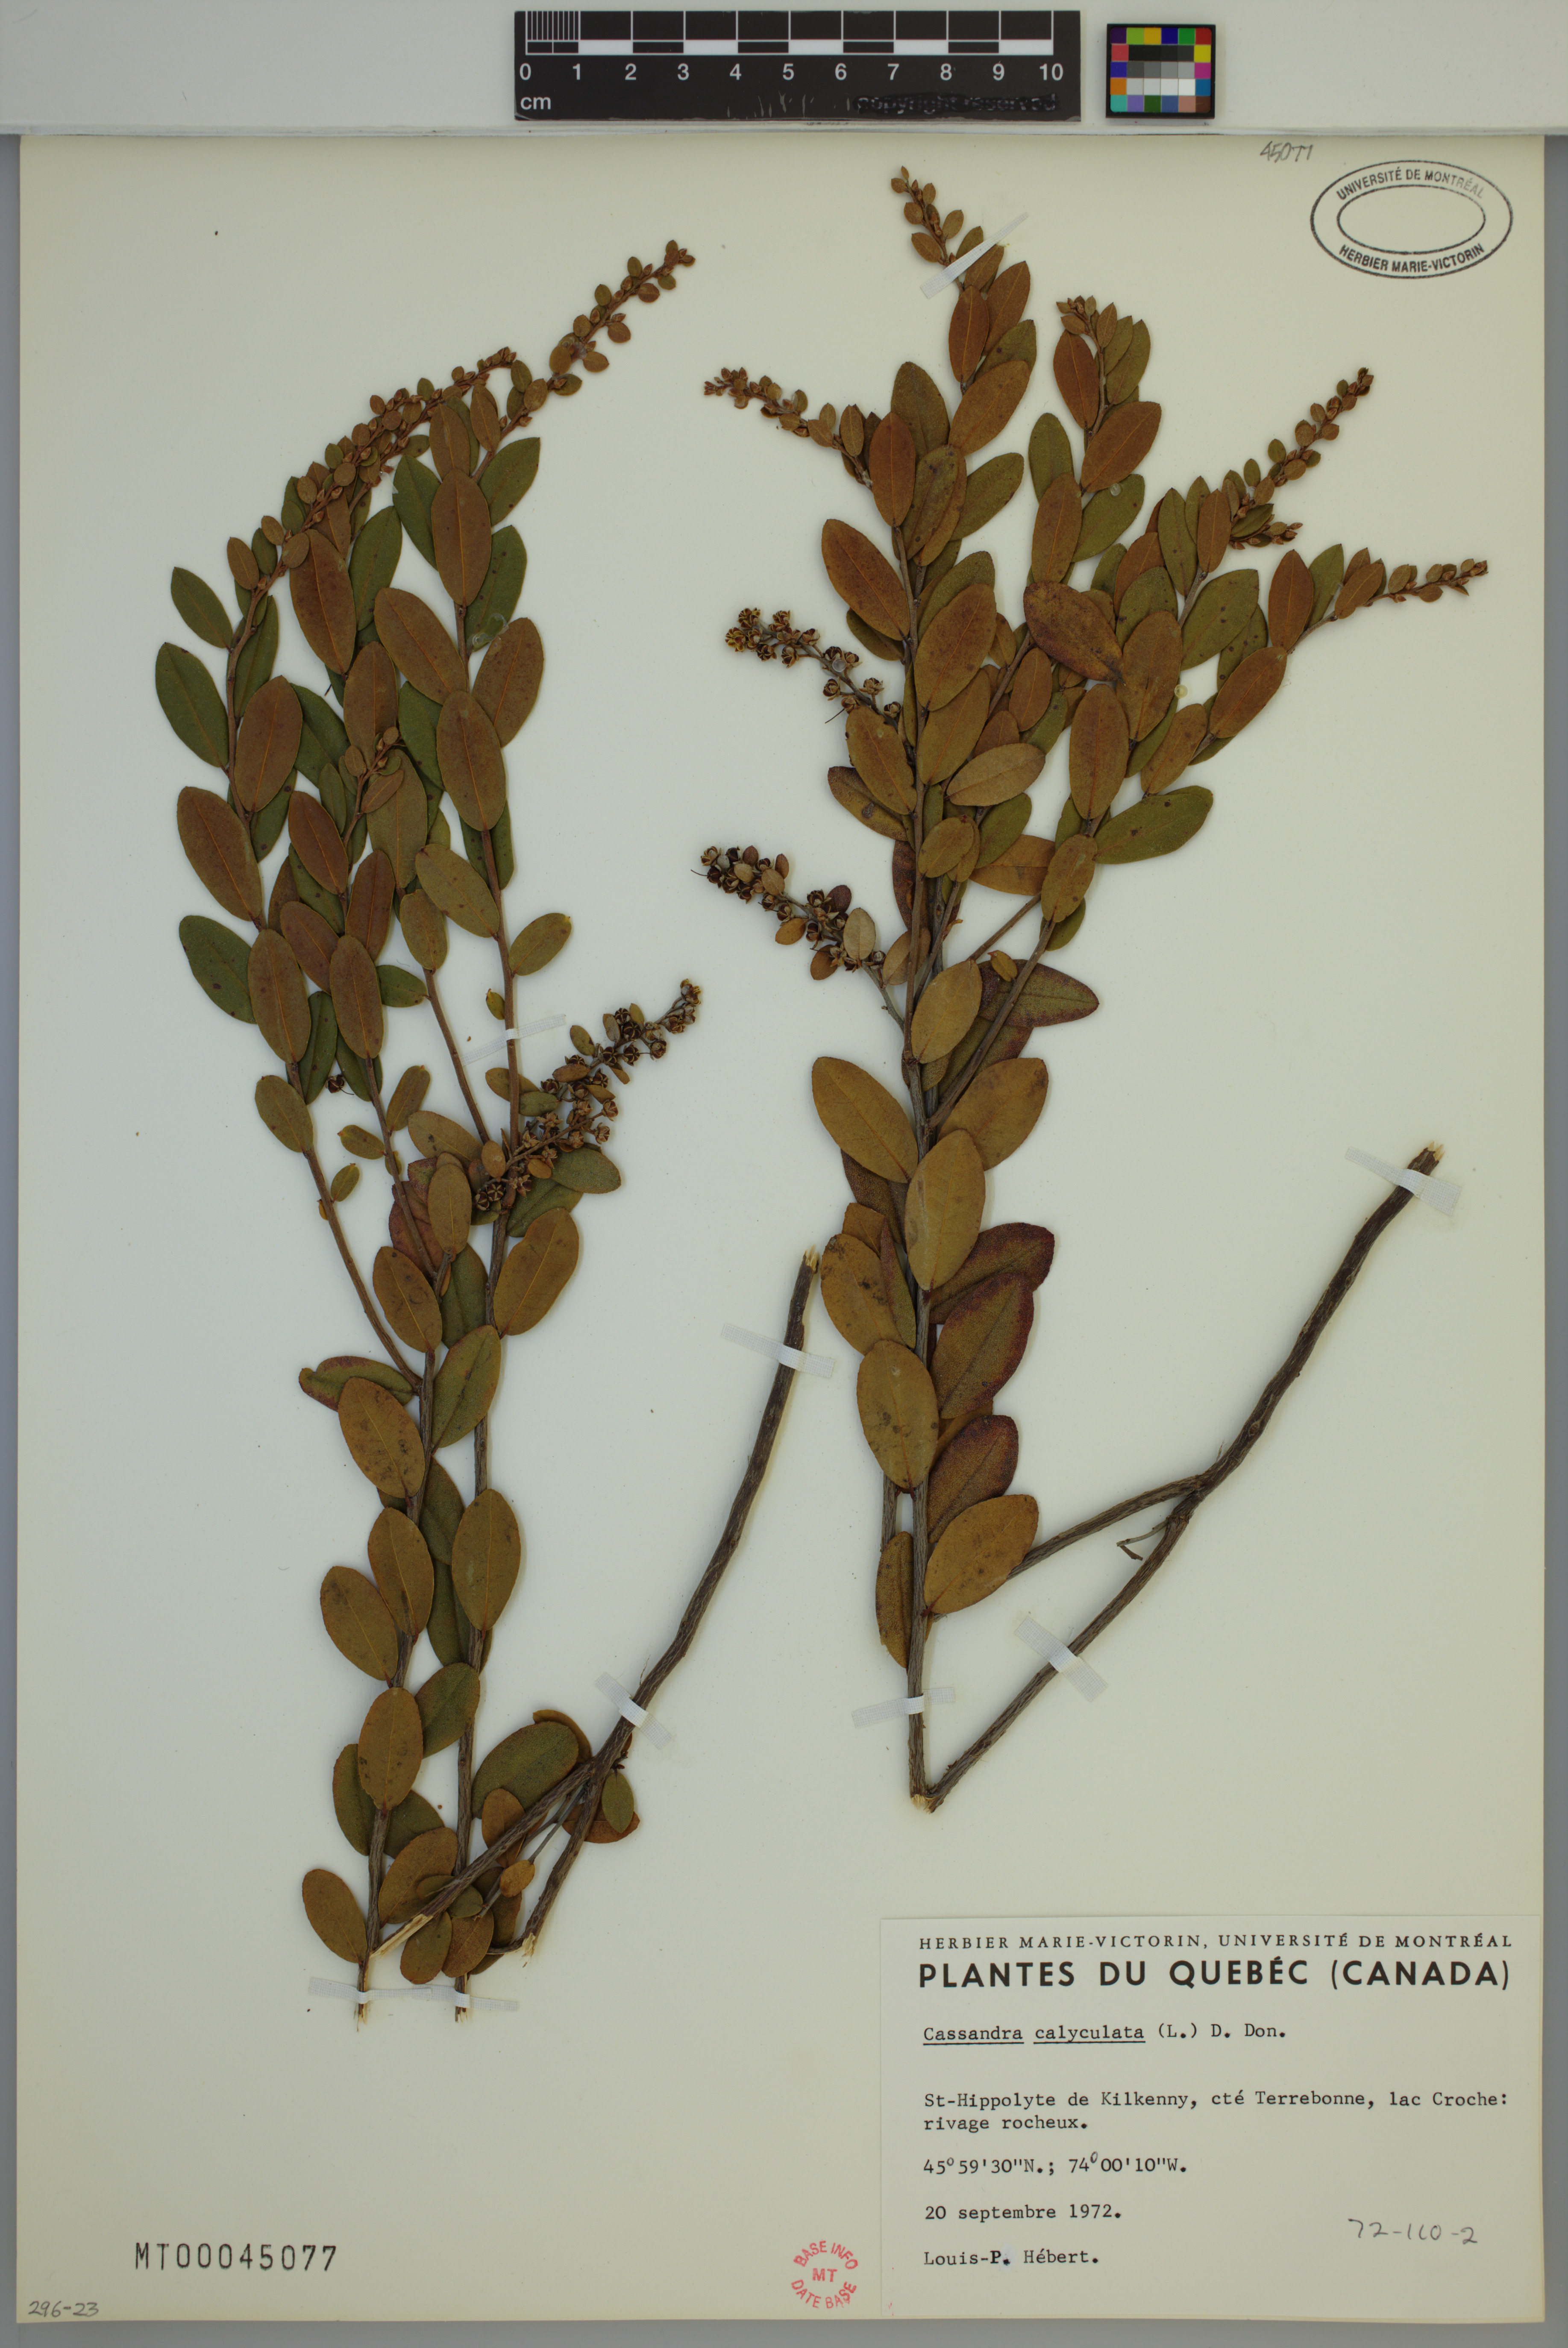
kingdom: Plantae
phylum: Tracheophyta
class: Magnoliopsida
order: Ericales
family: Ericaceae
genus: Chamaedaphne
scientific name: Chamaedaphne calyculata
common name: Leatherleaf
